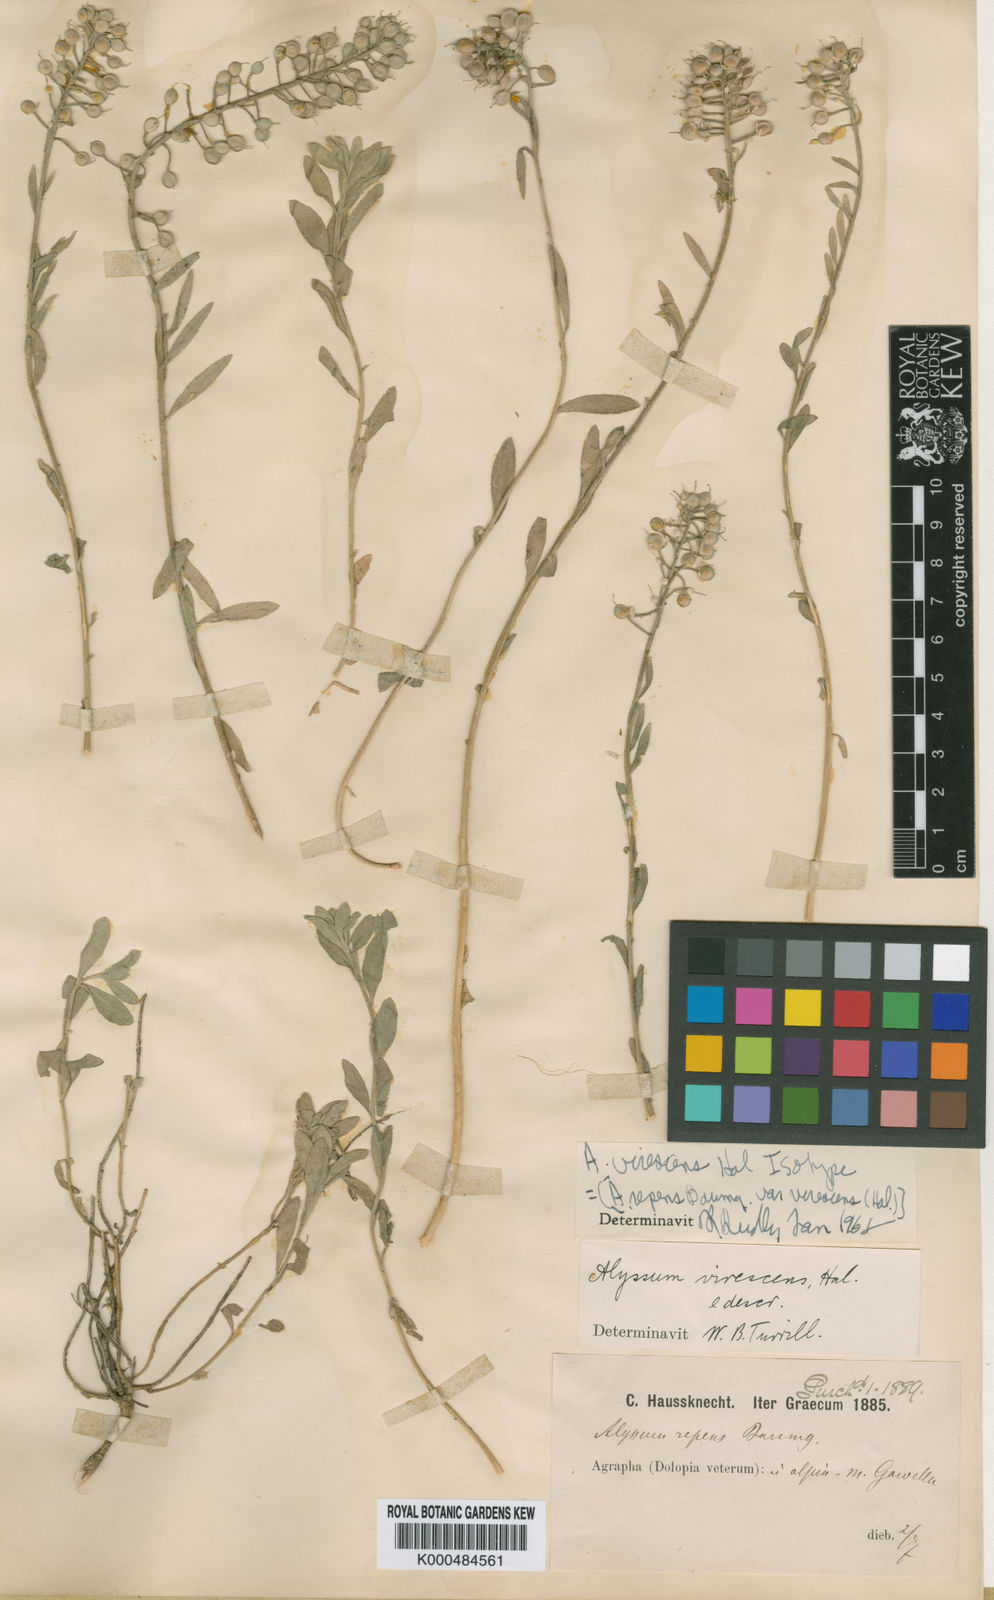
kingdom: Plantae
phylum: Tracheophyta
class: Magnoliopsida
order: Brassicales
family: Brassicaceae
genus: Alyssum
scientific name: Alyssum repens
